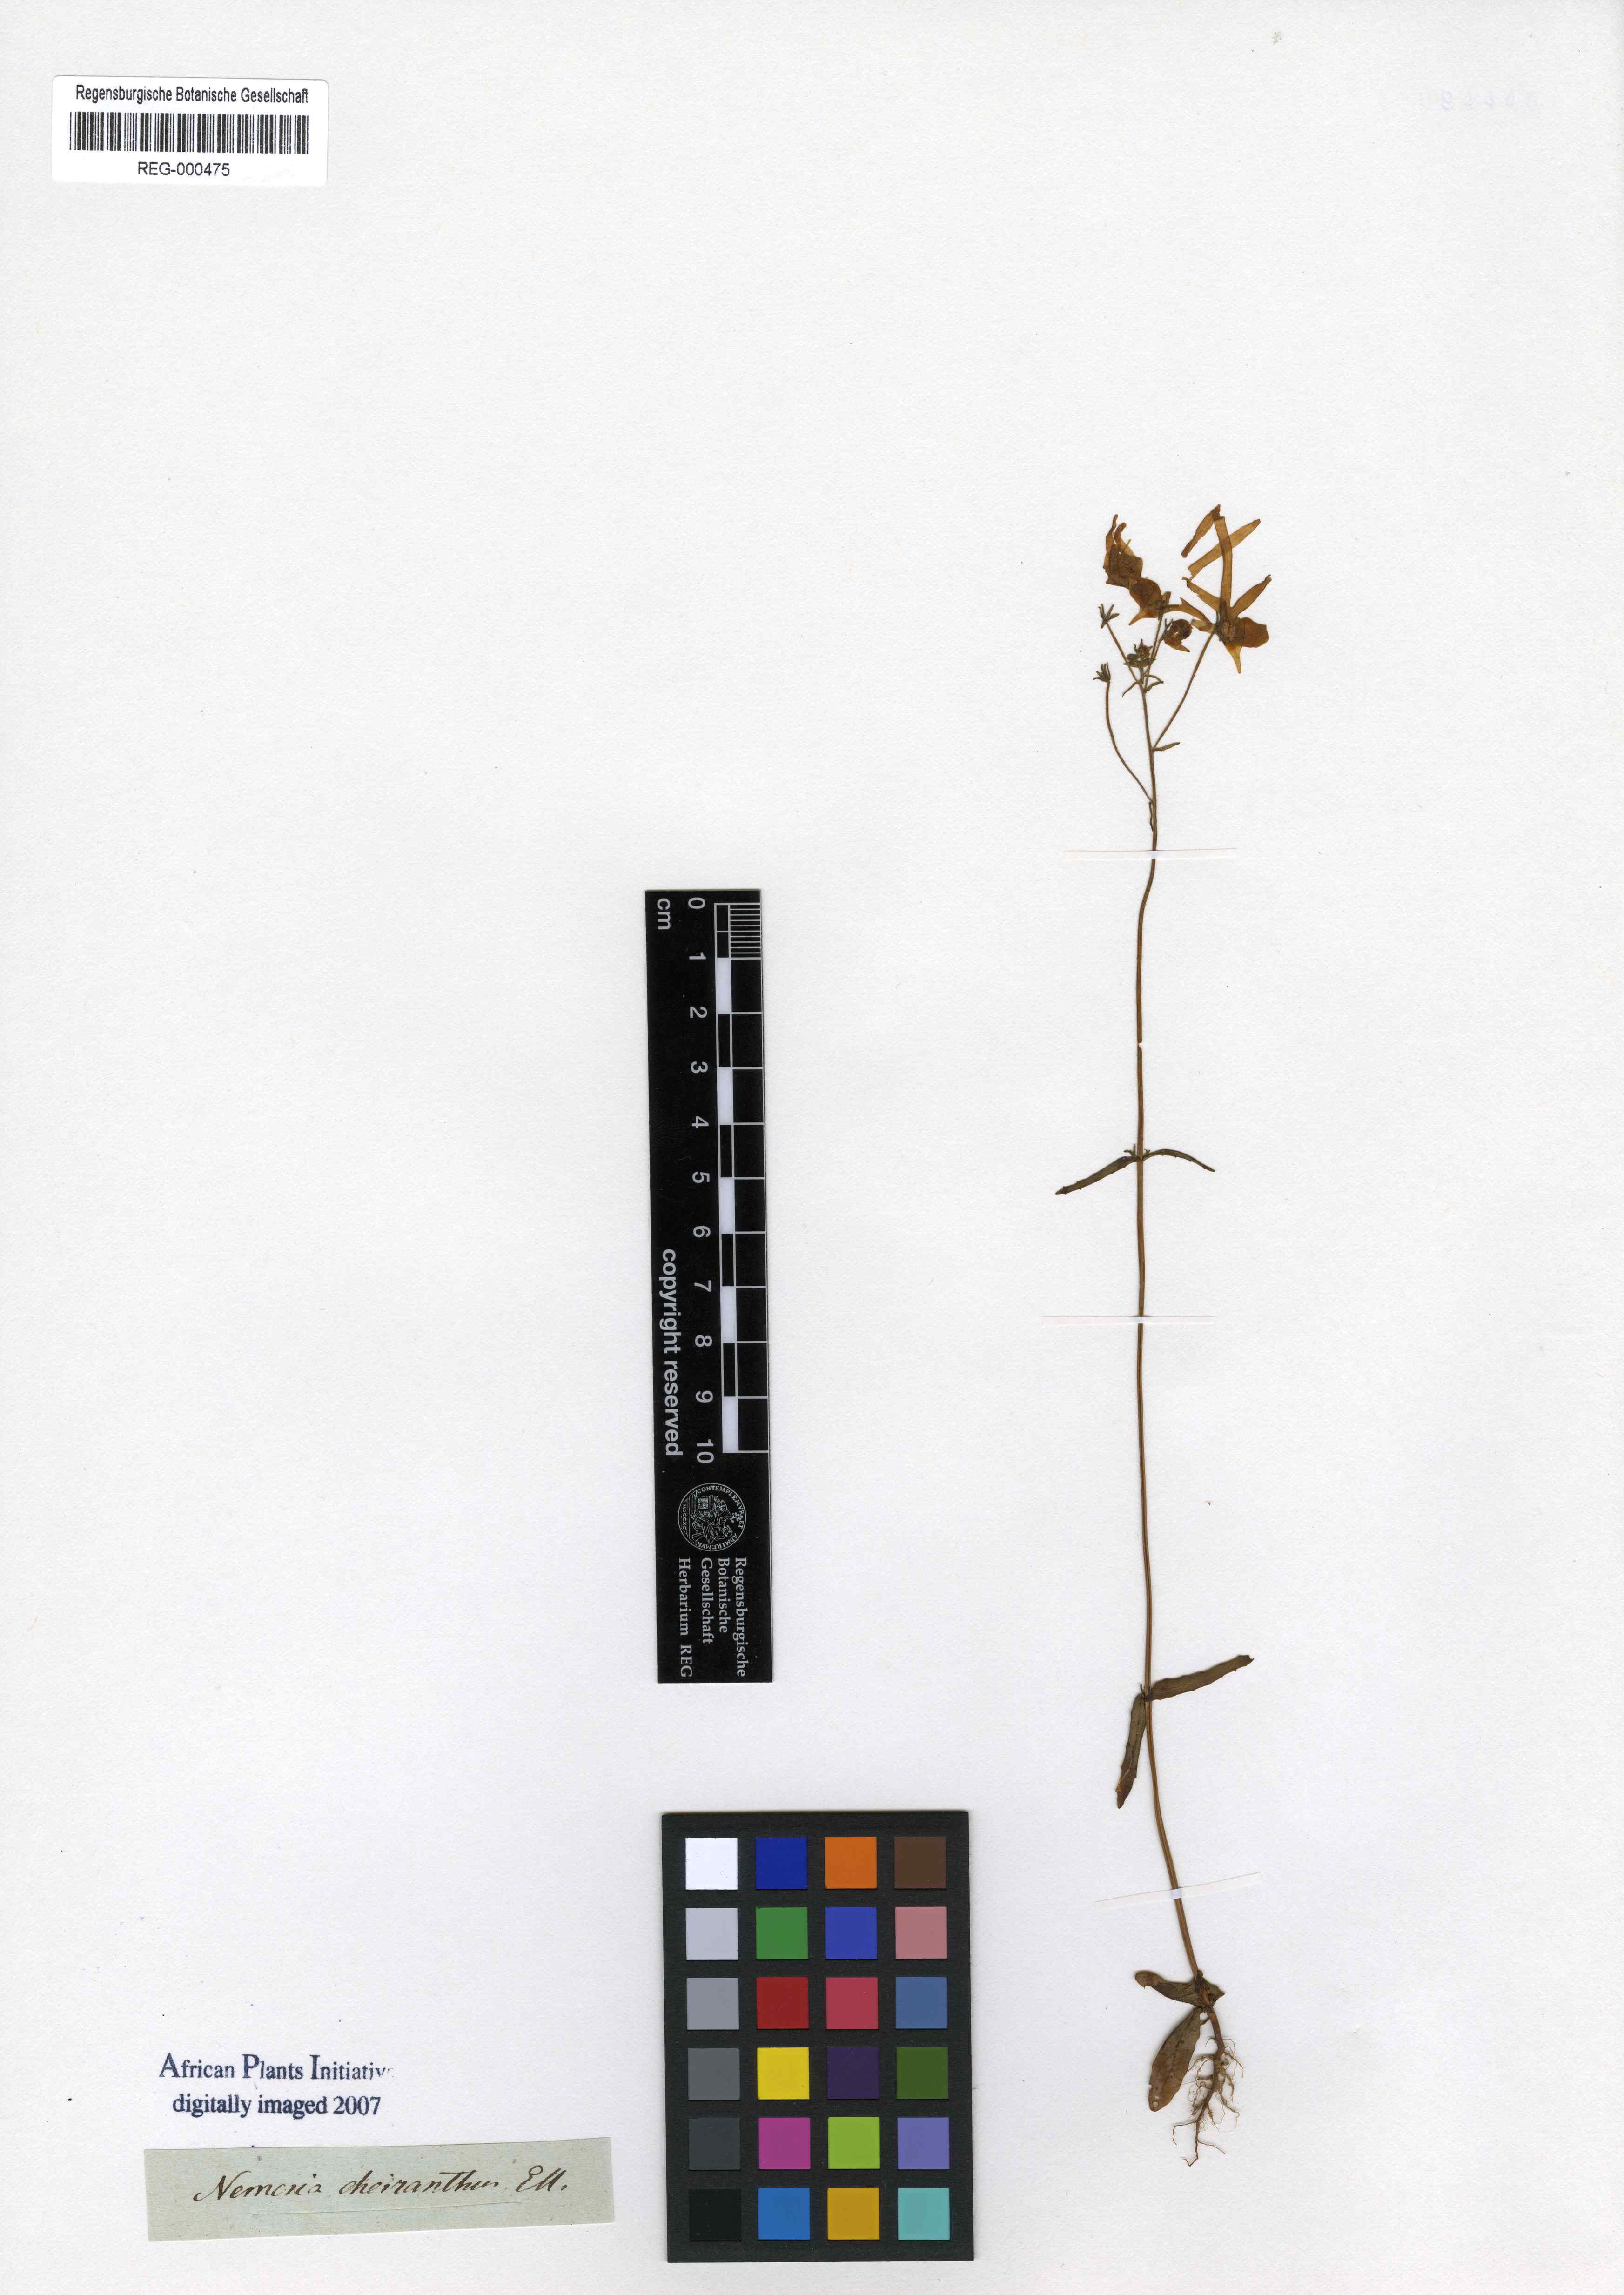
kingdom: Plantae
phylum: Tracheophyta
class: Magnoliopsida
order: Lamiales
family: Scrophulariaceae
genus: Nemesia
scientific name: Nemesia cheiranthus
